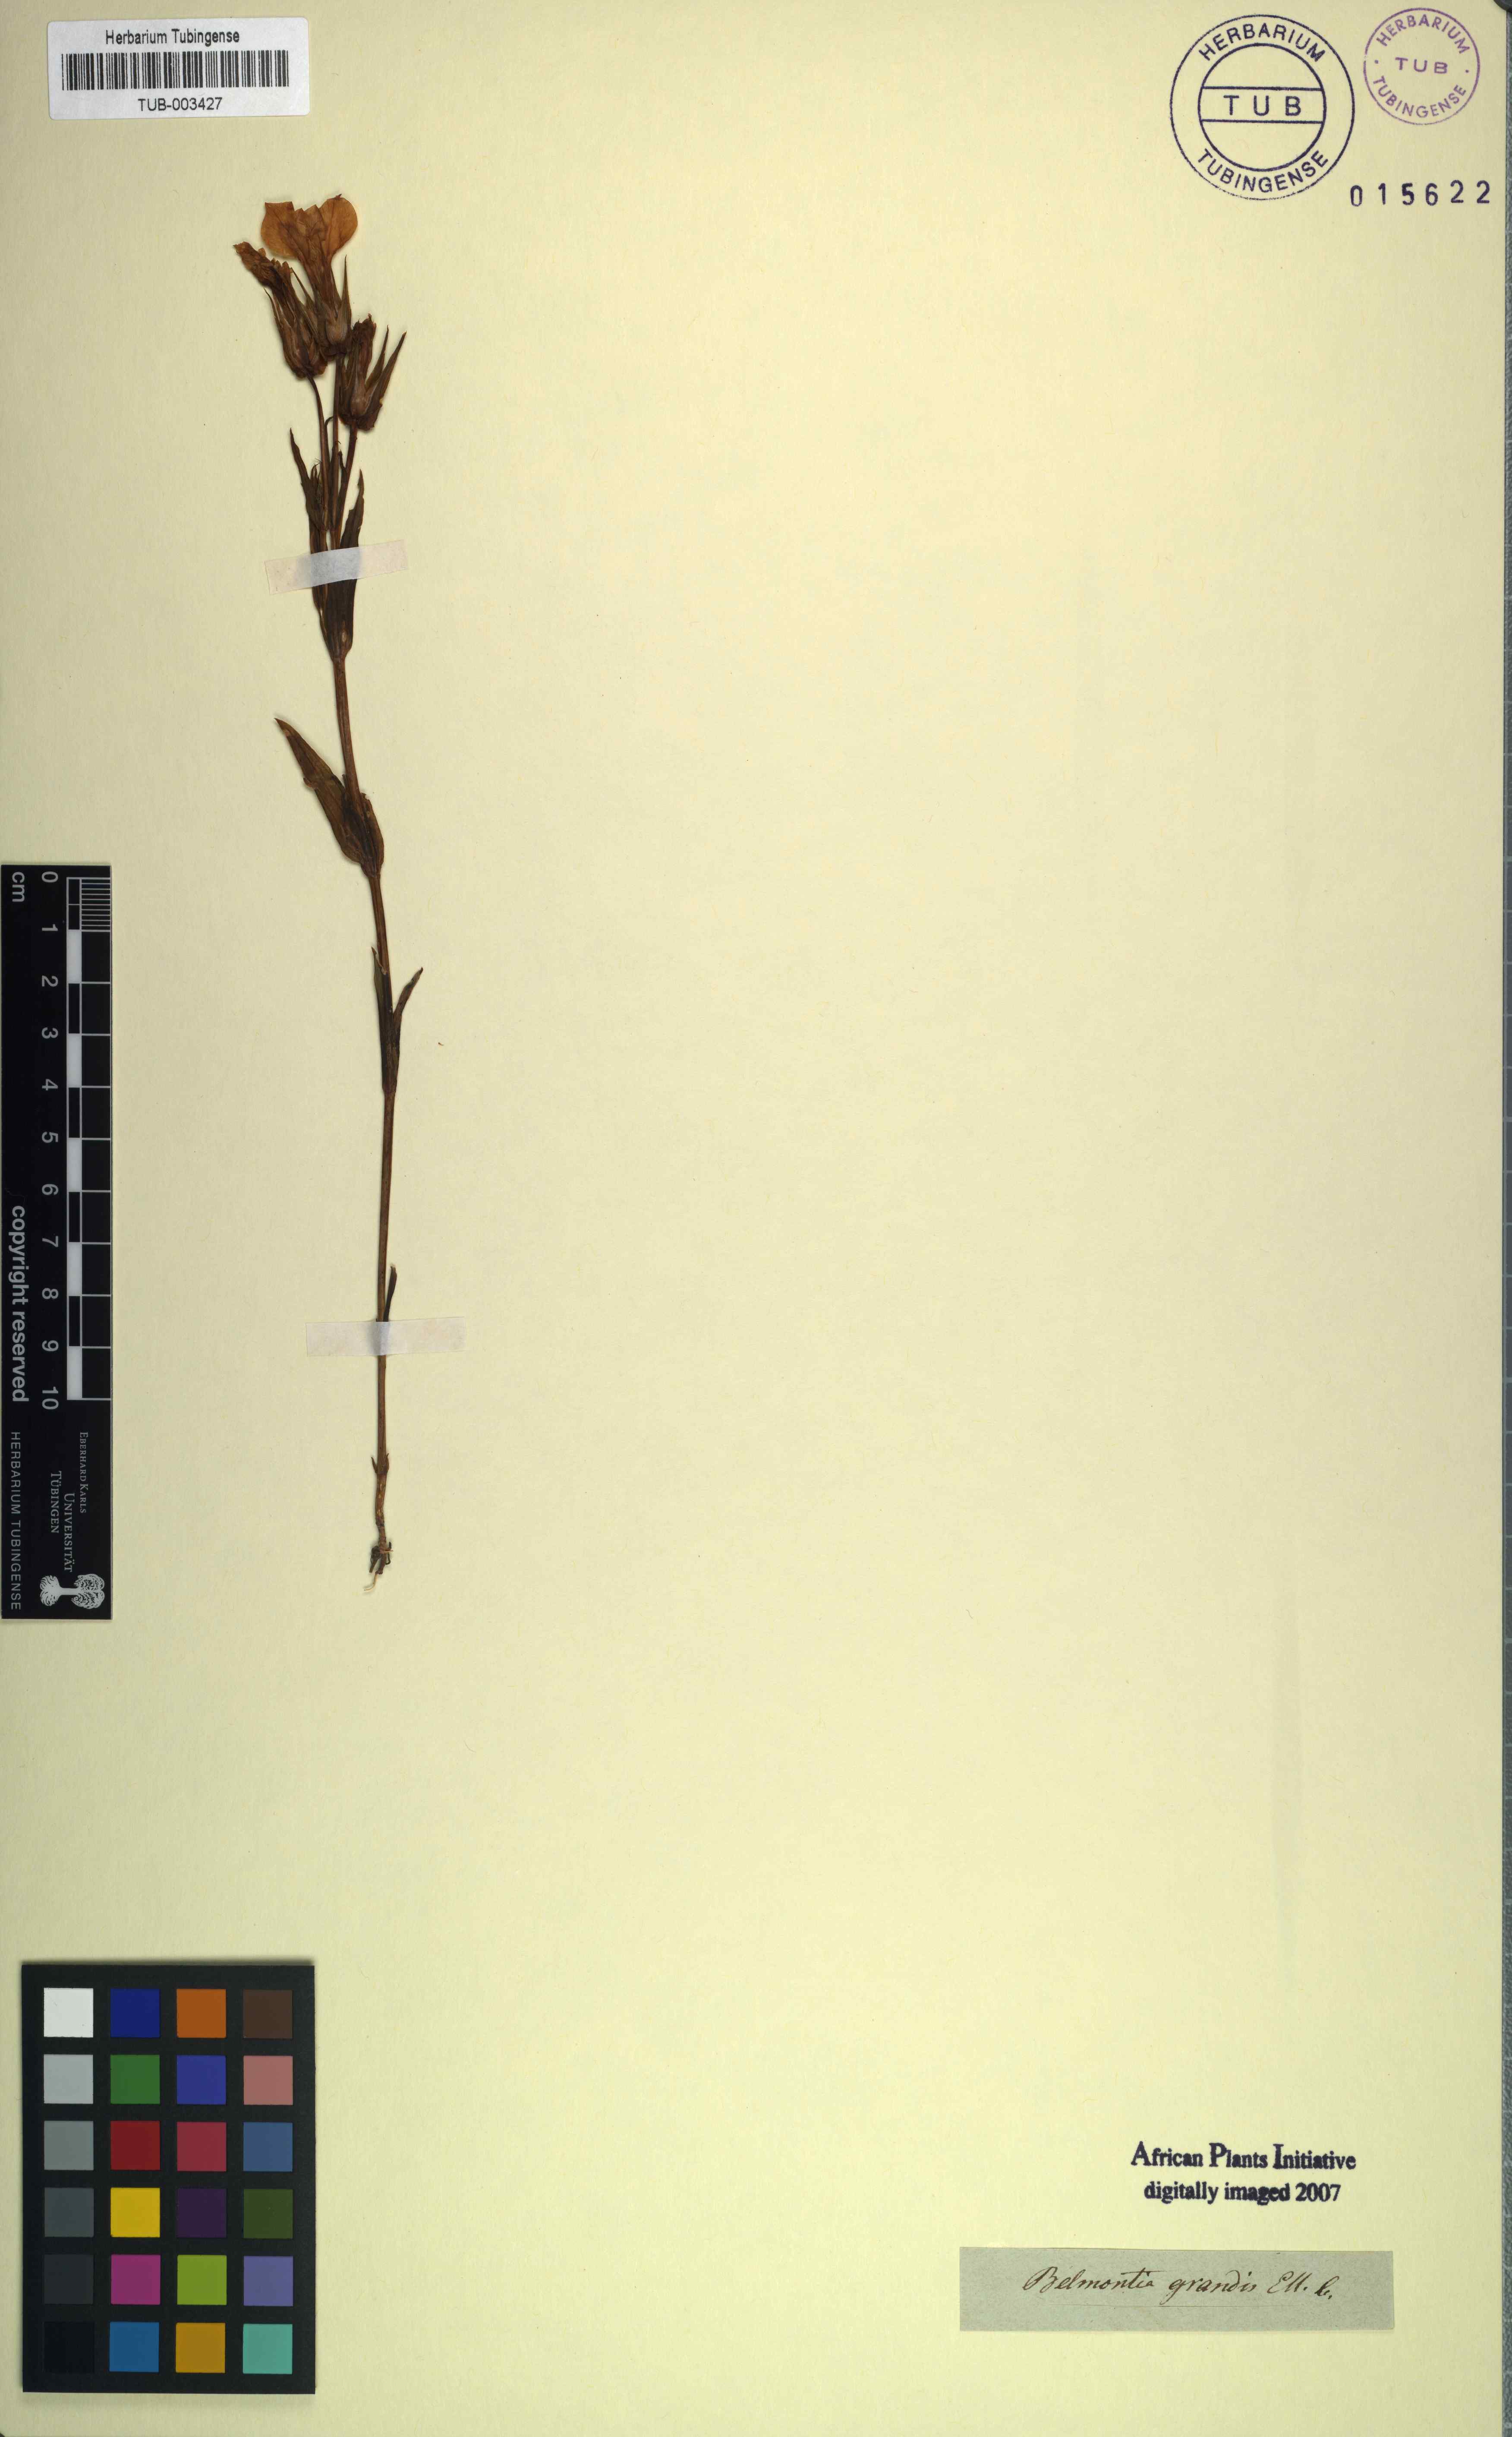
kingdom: Plantae
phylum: Tracheophyta
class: Magnoliopsida
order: Gentianales
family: Gentianaceae
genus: Exochaenium
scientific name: Exochaenium grande
